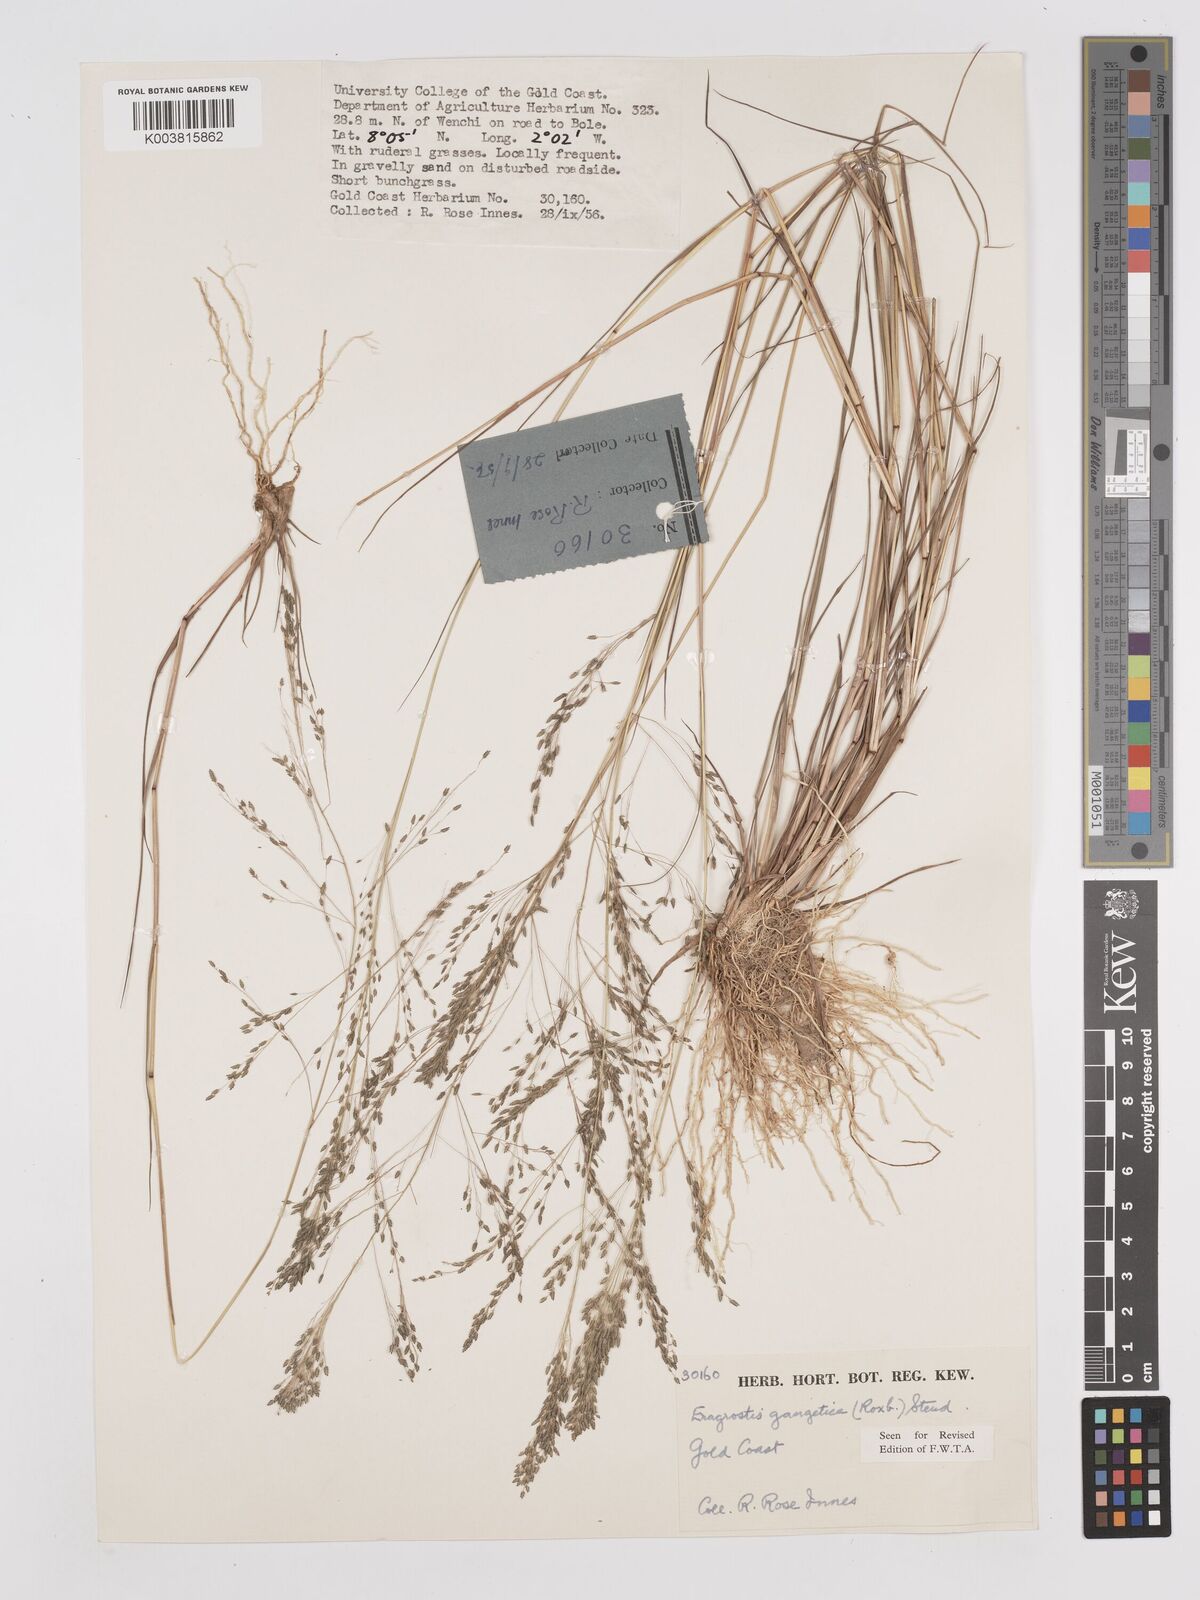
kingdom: Plantae
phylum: Tracheophyta
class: Liliopsida
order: Poales
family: Poaceae
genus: Eragrostis
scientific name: Eragrostis gangetica
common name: Slimflower lovegrass
